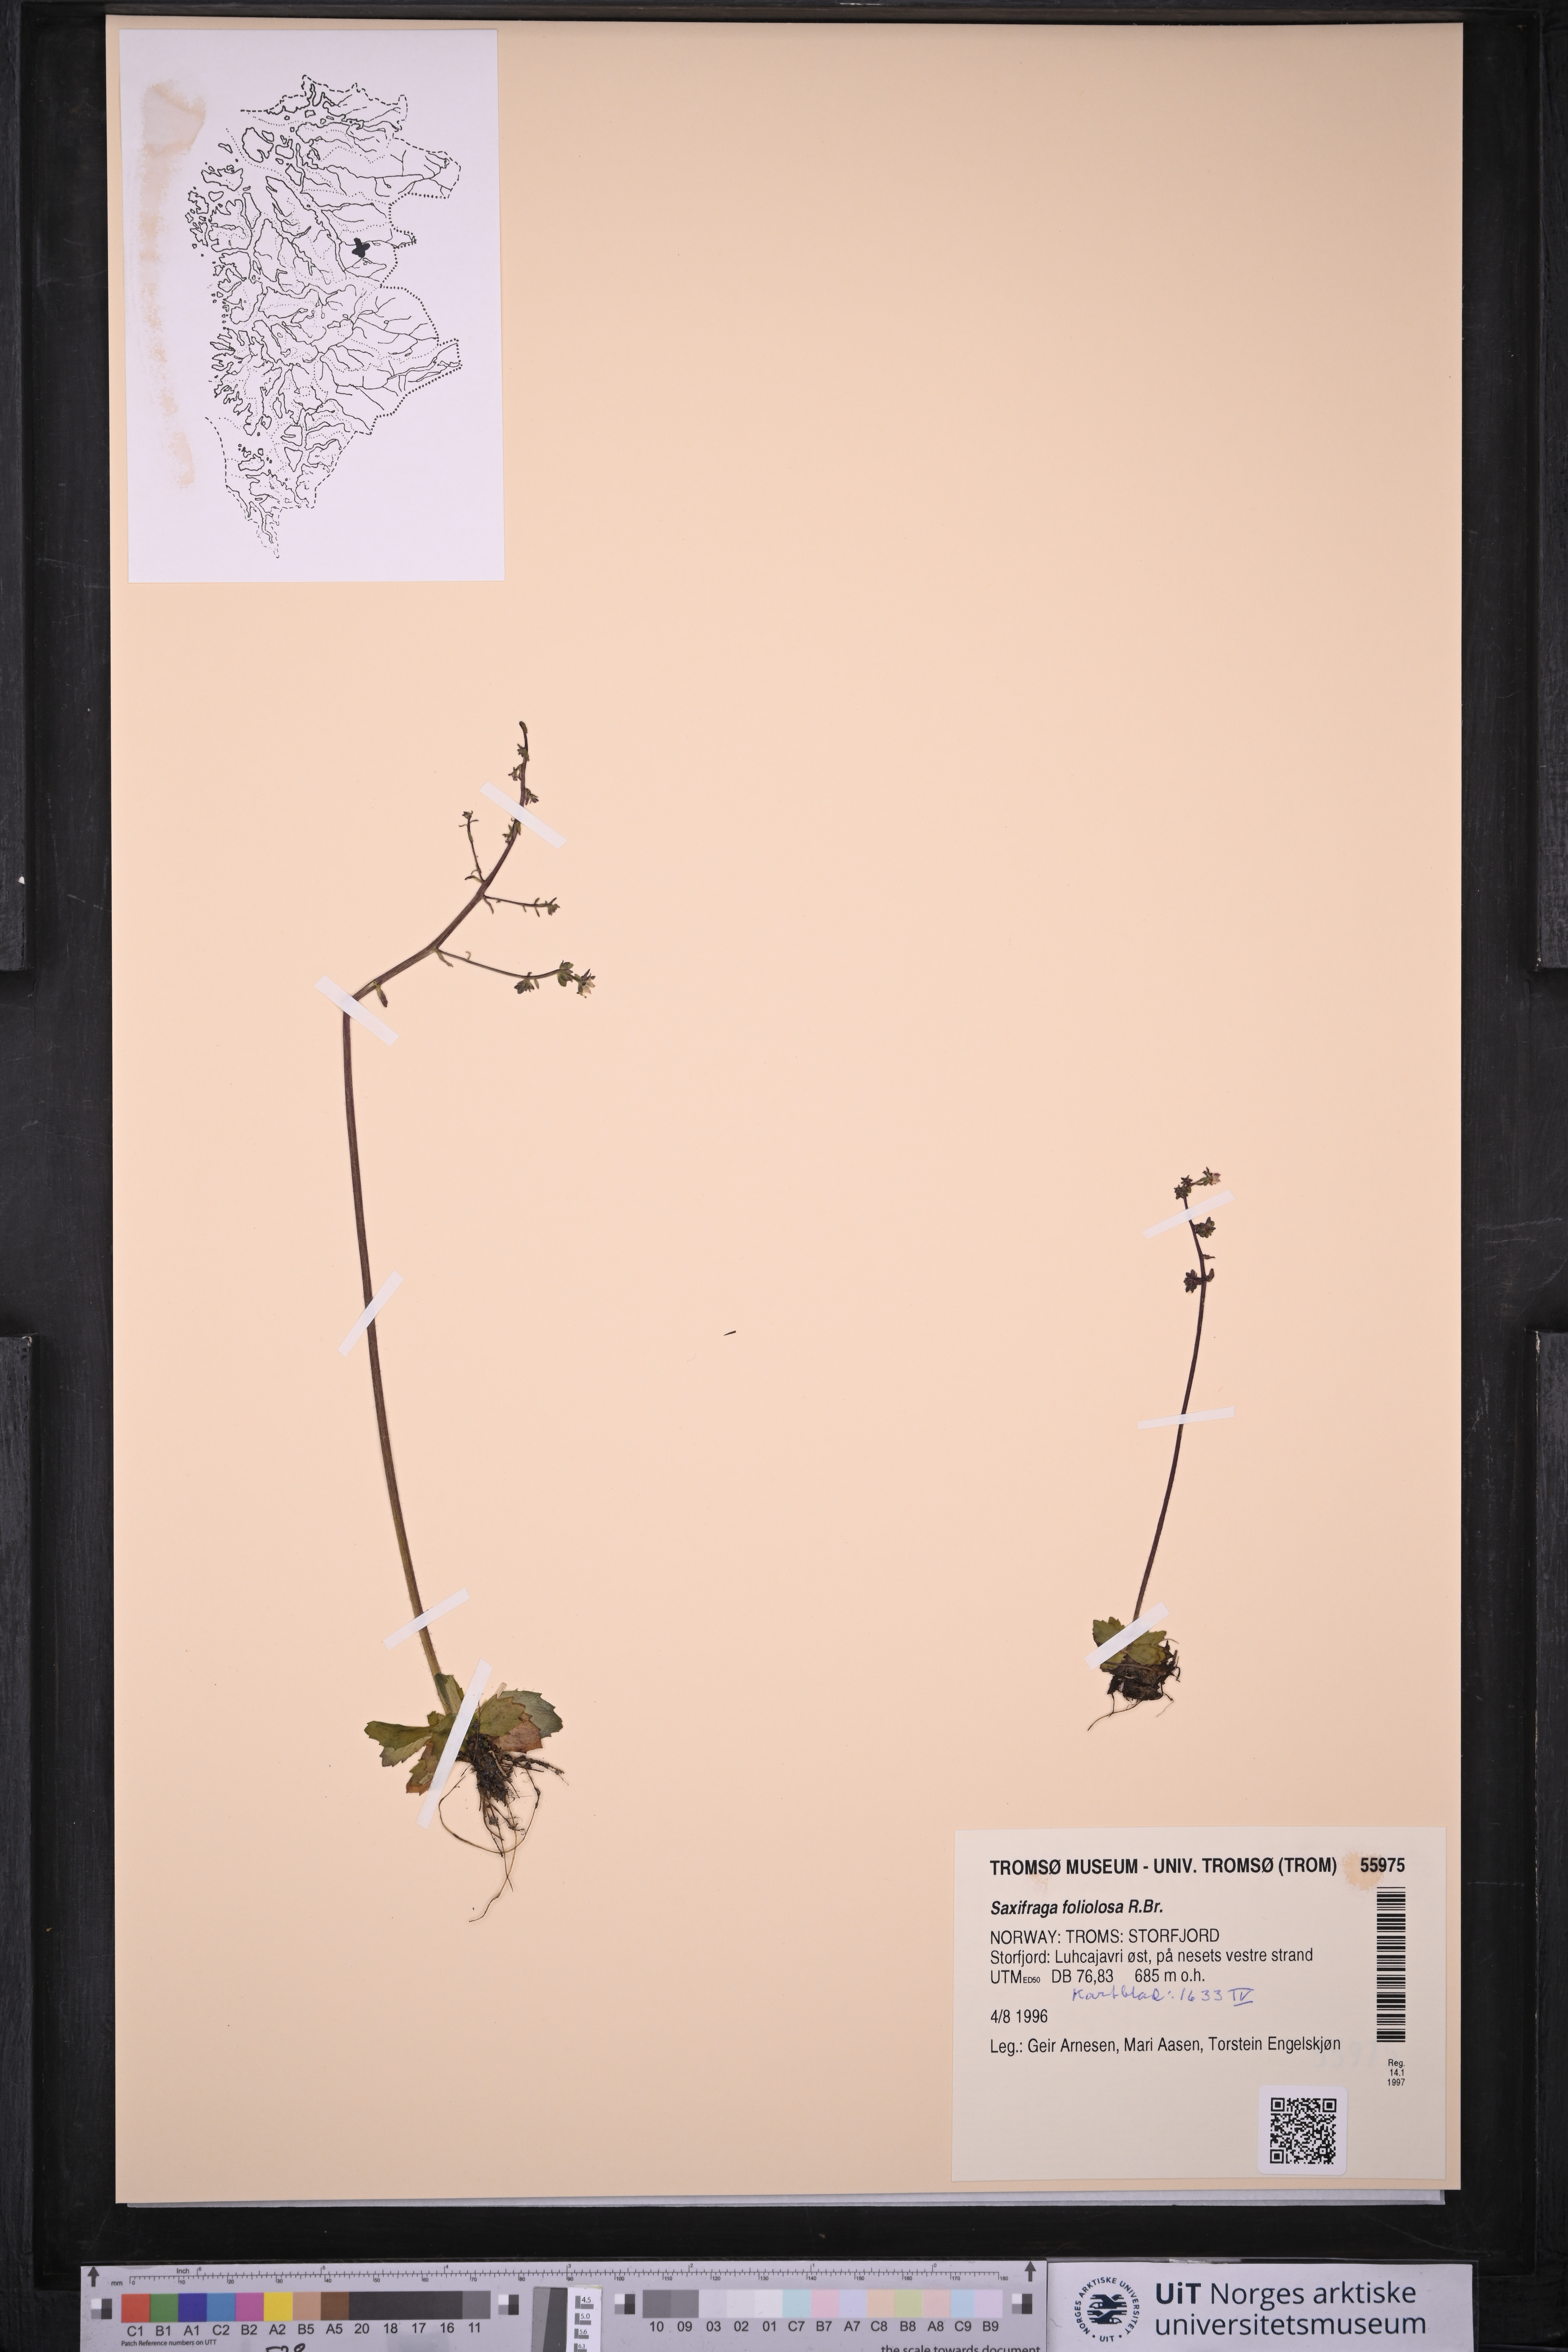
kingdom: Plantae
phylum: Tracheophyta
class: Magnoliopsida
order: Saxifragales
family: Saxifragaceae
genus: Micranthes
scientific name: Micranthes foliolosa
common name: Leafystem saxifrage
